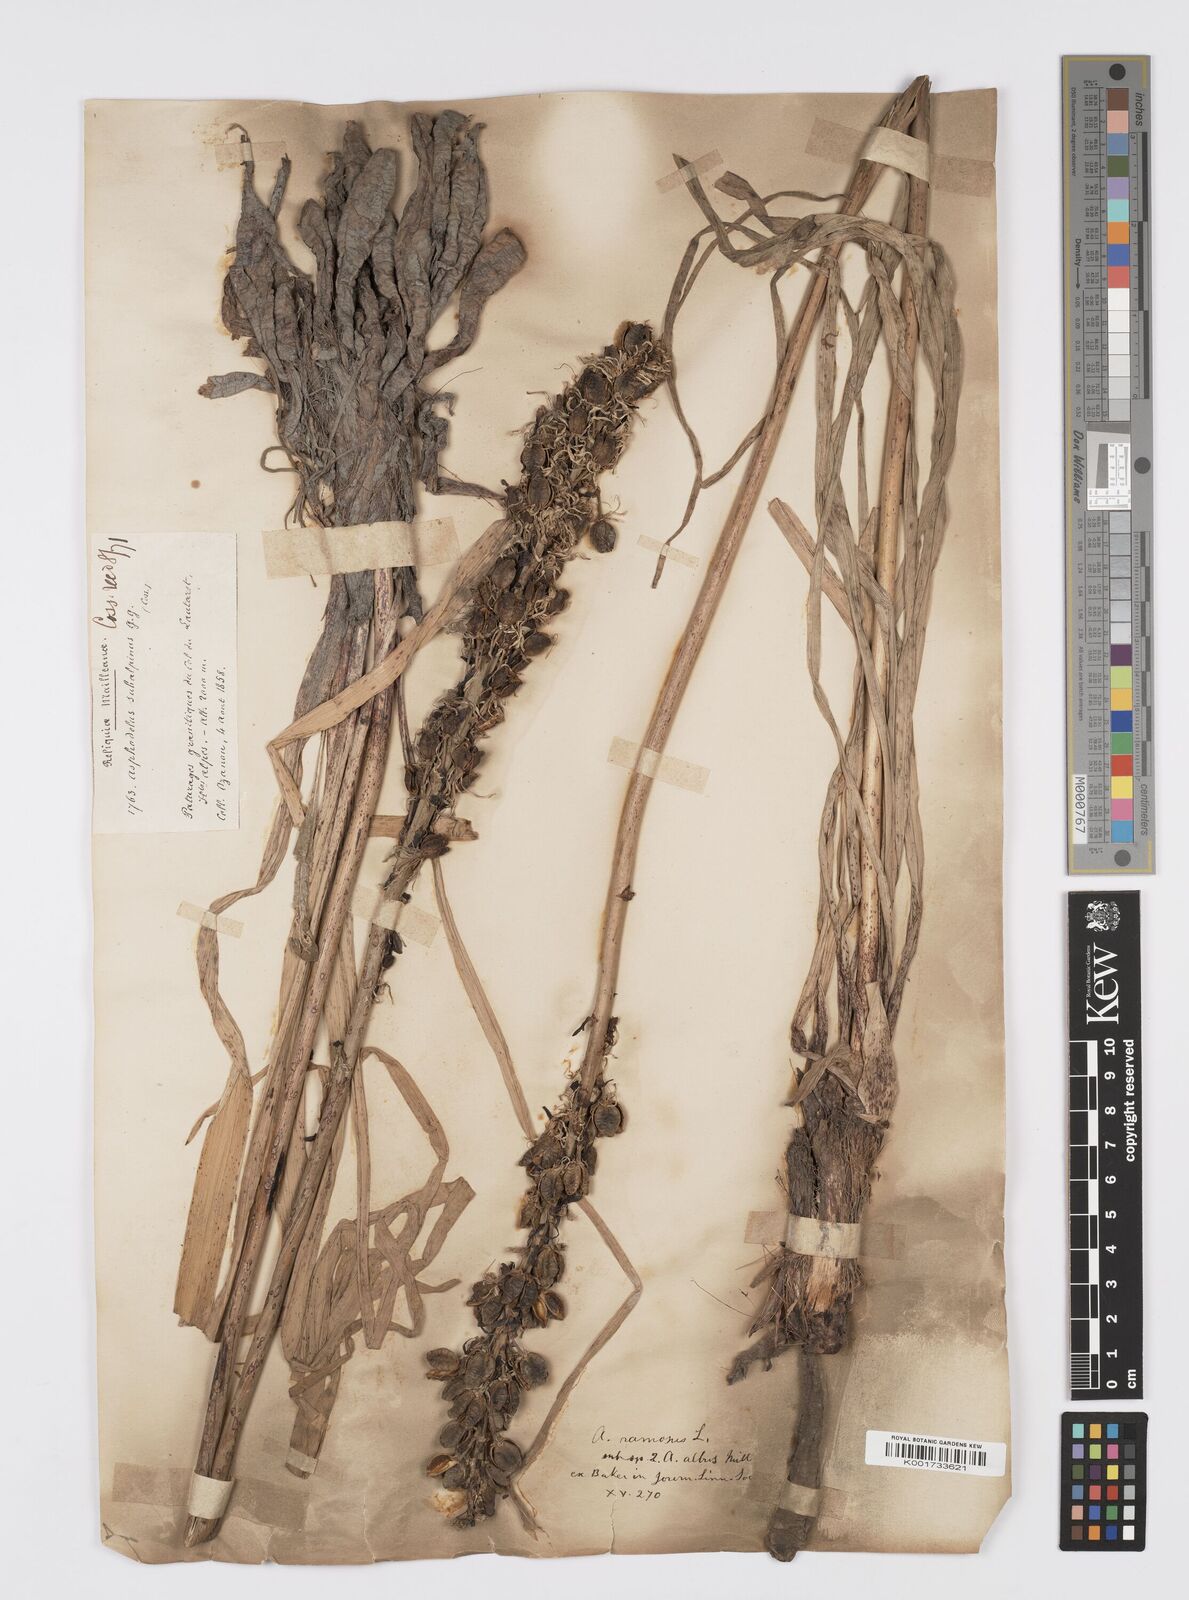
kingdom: Plantae
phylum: Tracheophyta
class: Liliopsida
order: Asparagales
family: Asphodelaceae
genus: Asphodelus
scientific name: Asphodelus albus
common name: White asphodel
